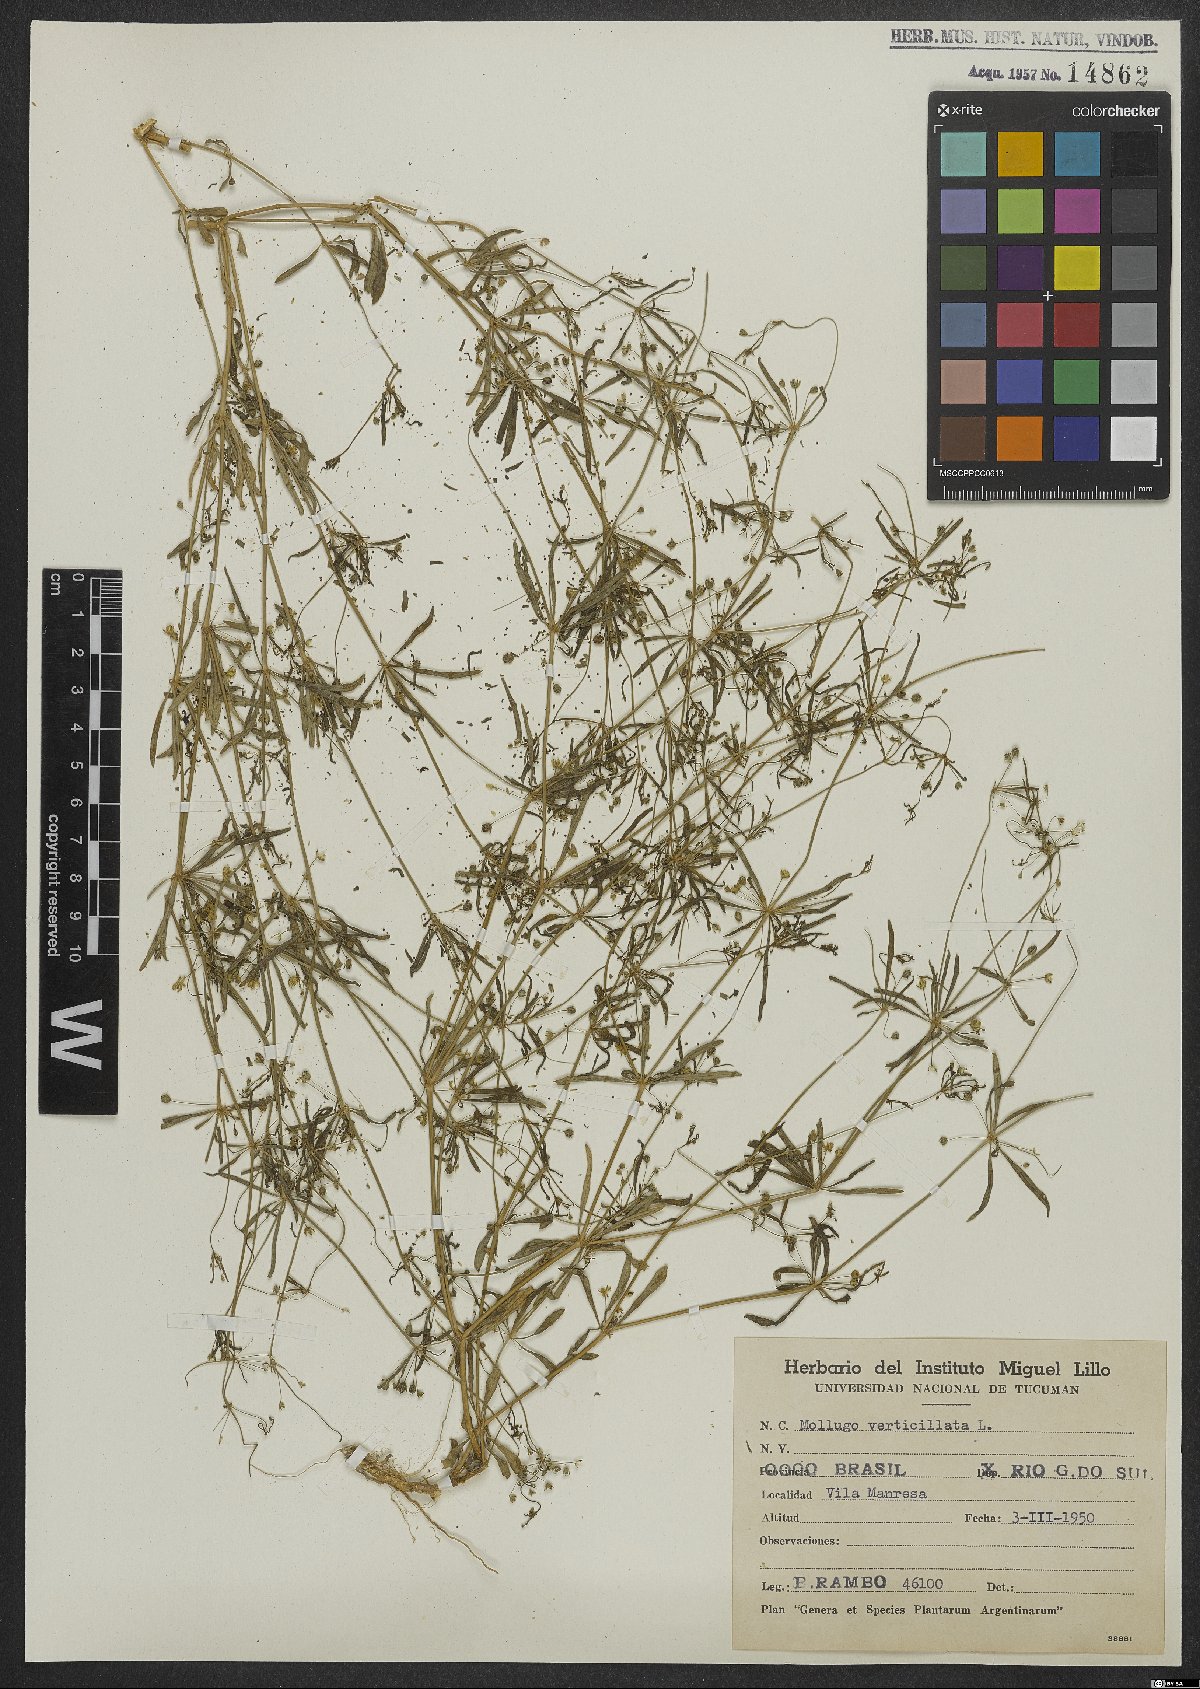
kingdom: Plantae
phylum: Tracheophyta
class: Magnoliopsida
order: Caryophyllales
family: Molluginaceae
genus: Mollugo
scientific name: Mollugo verticillata
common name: Green carpetweed
